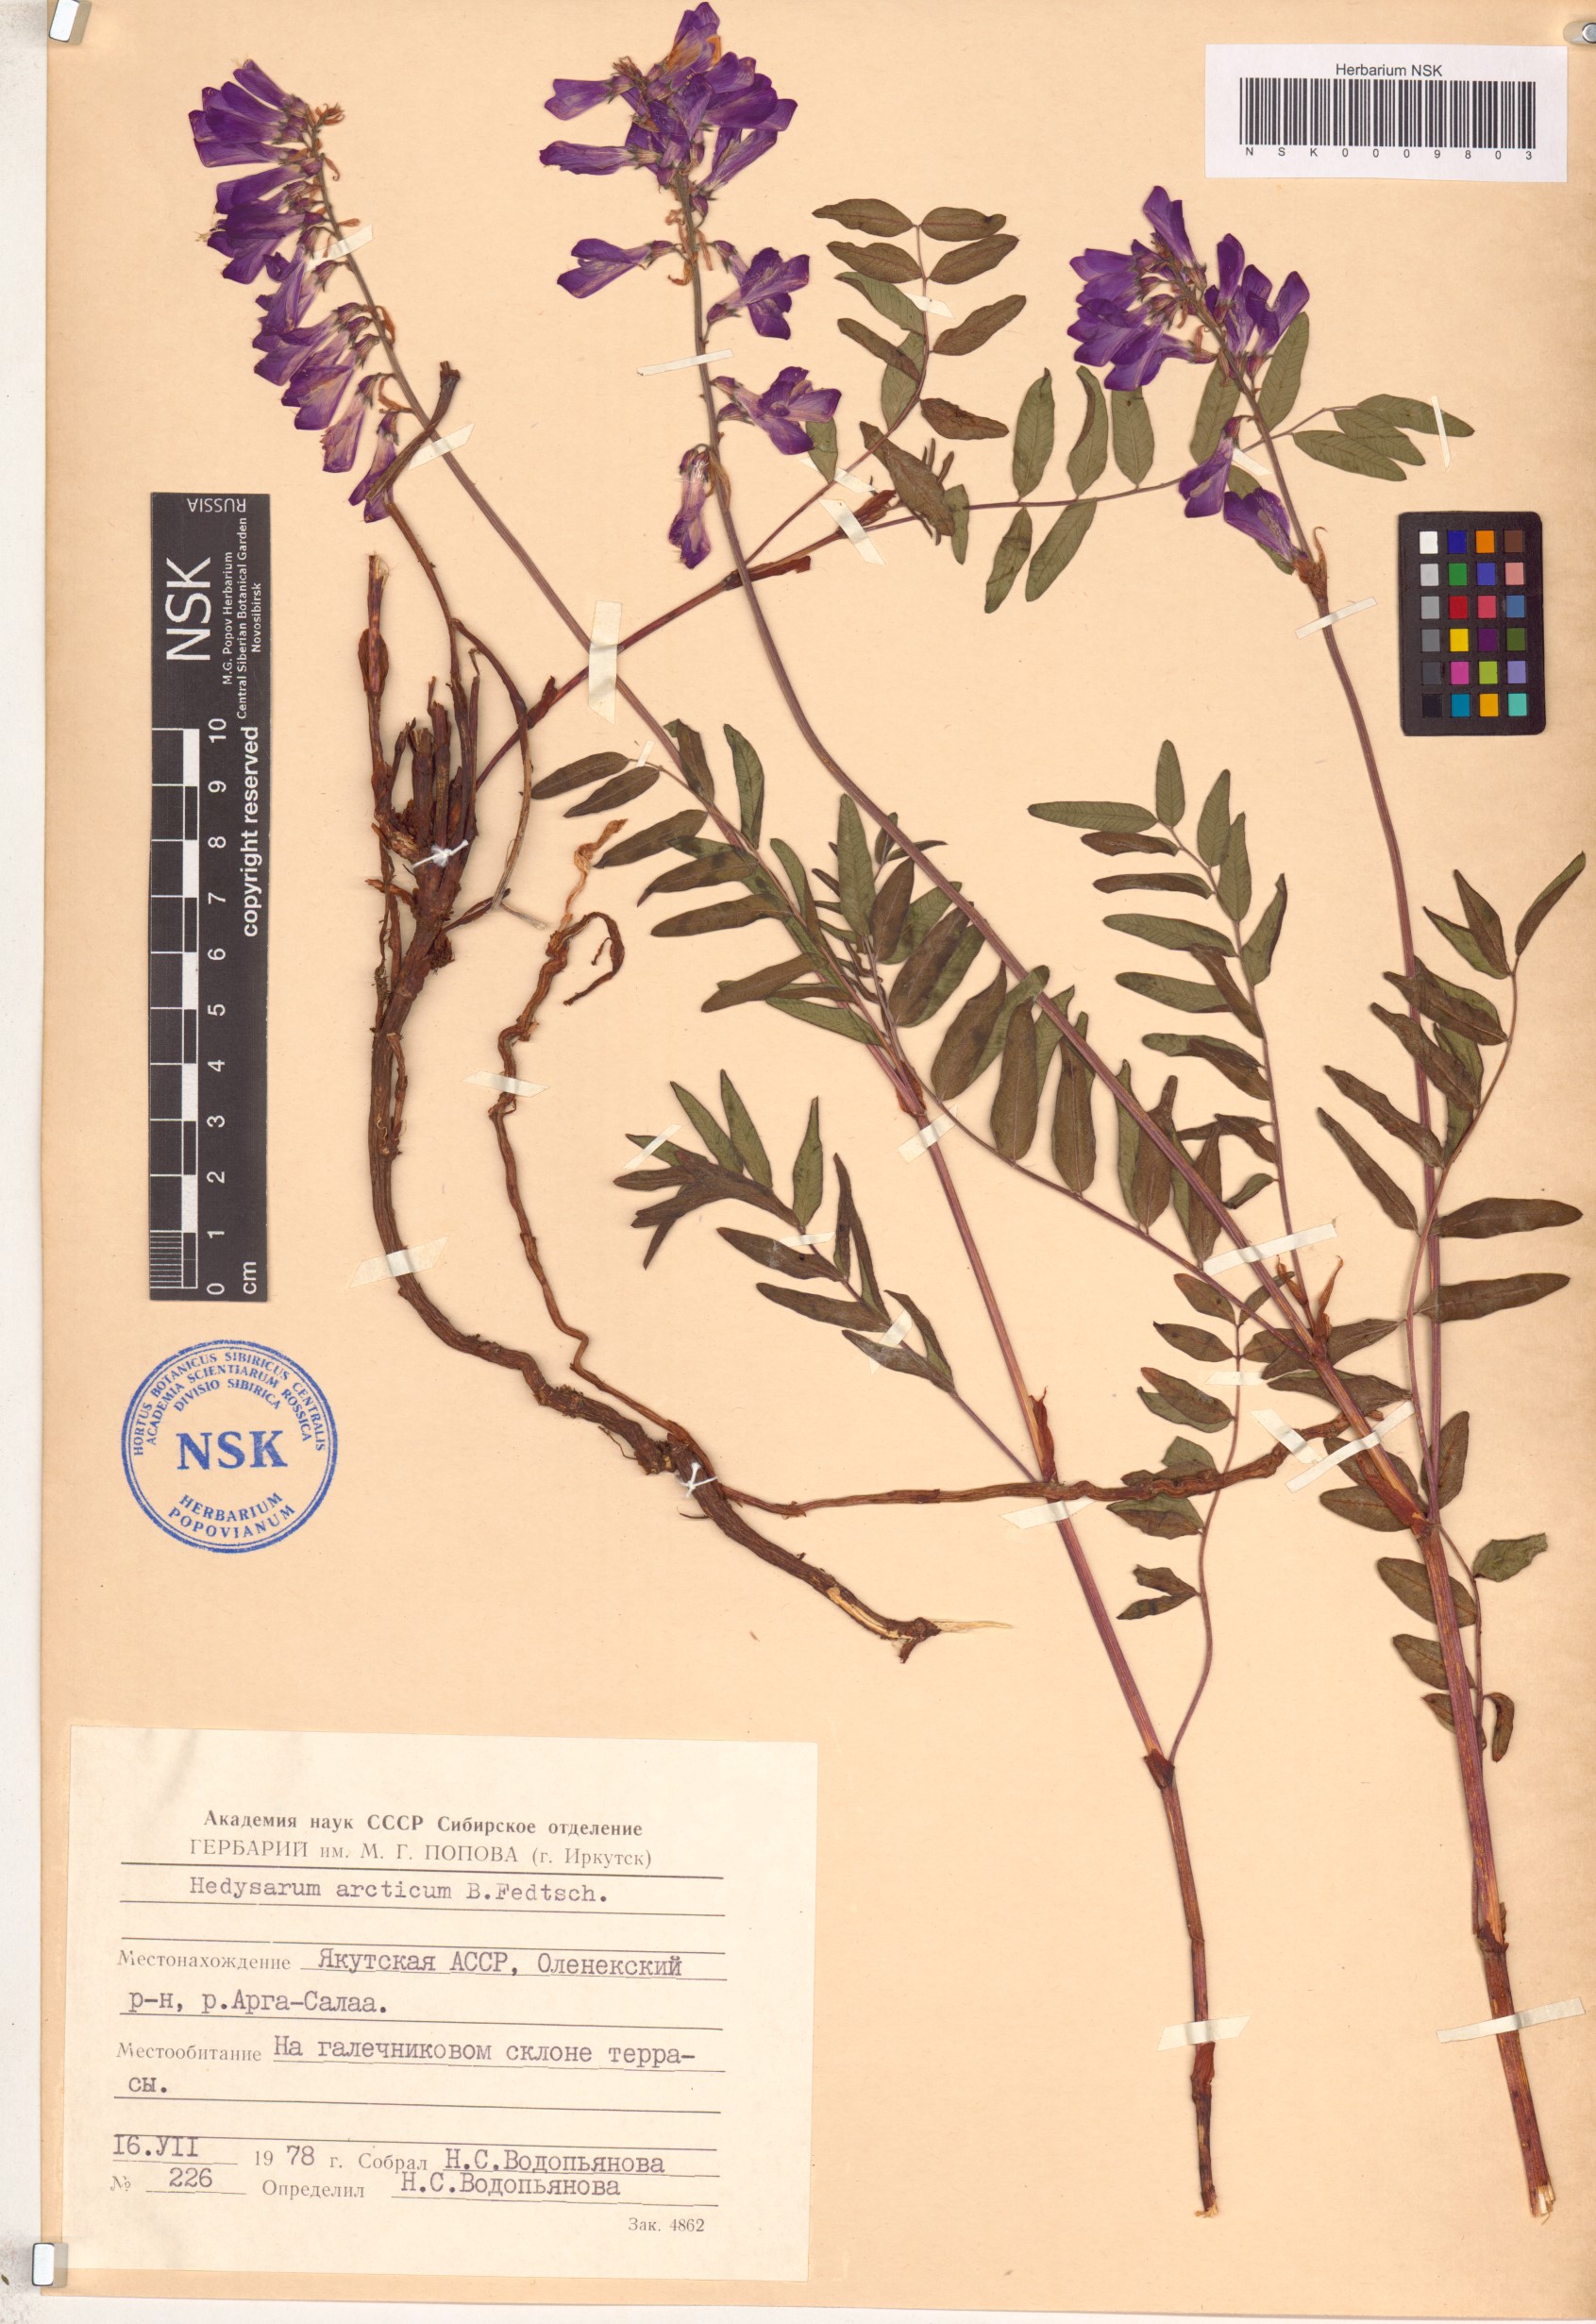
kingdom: Plantae
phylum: Tracheophyta
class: Magnoliopsida
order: Fabales
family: Fabaceae
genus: Hedysarum
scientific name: Hedysarum hedysaroides
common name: Alpine french-honeysuckle
